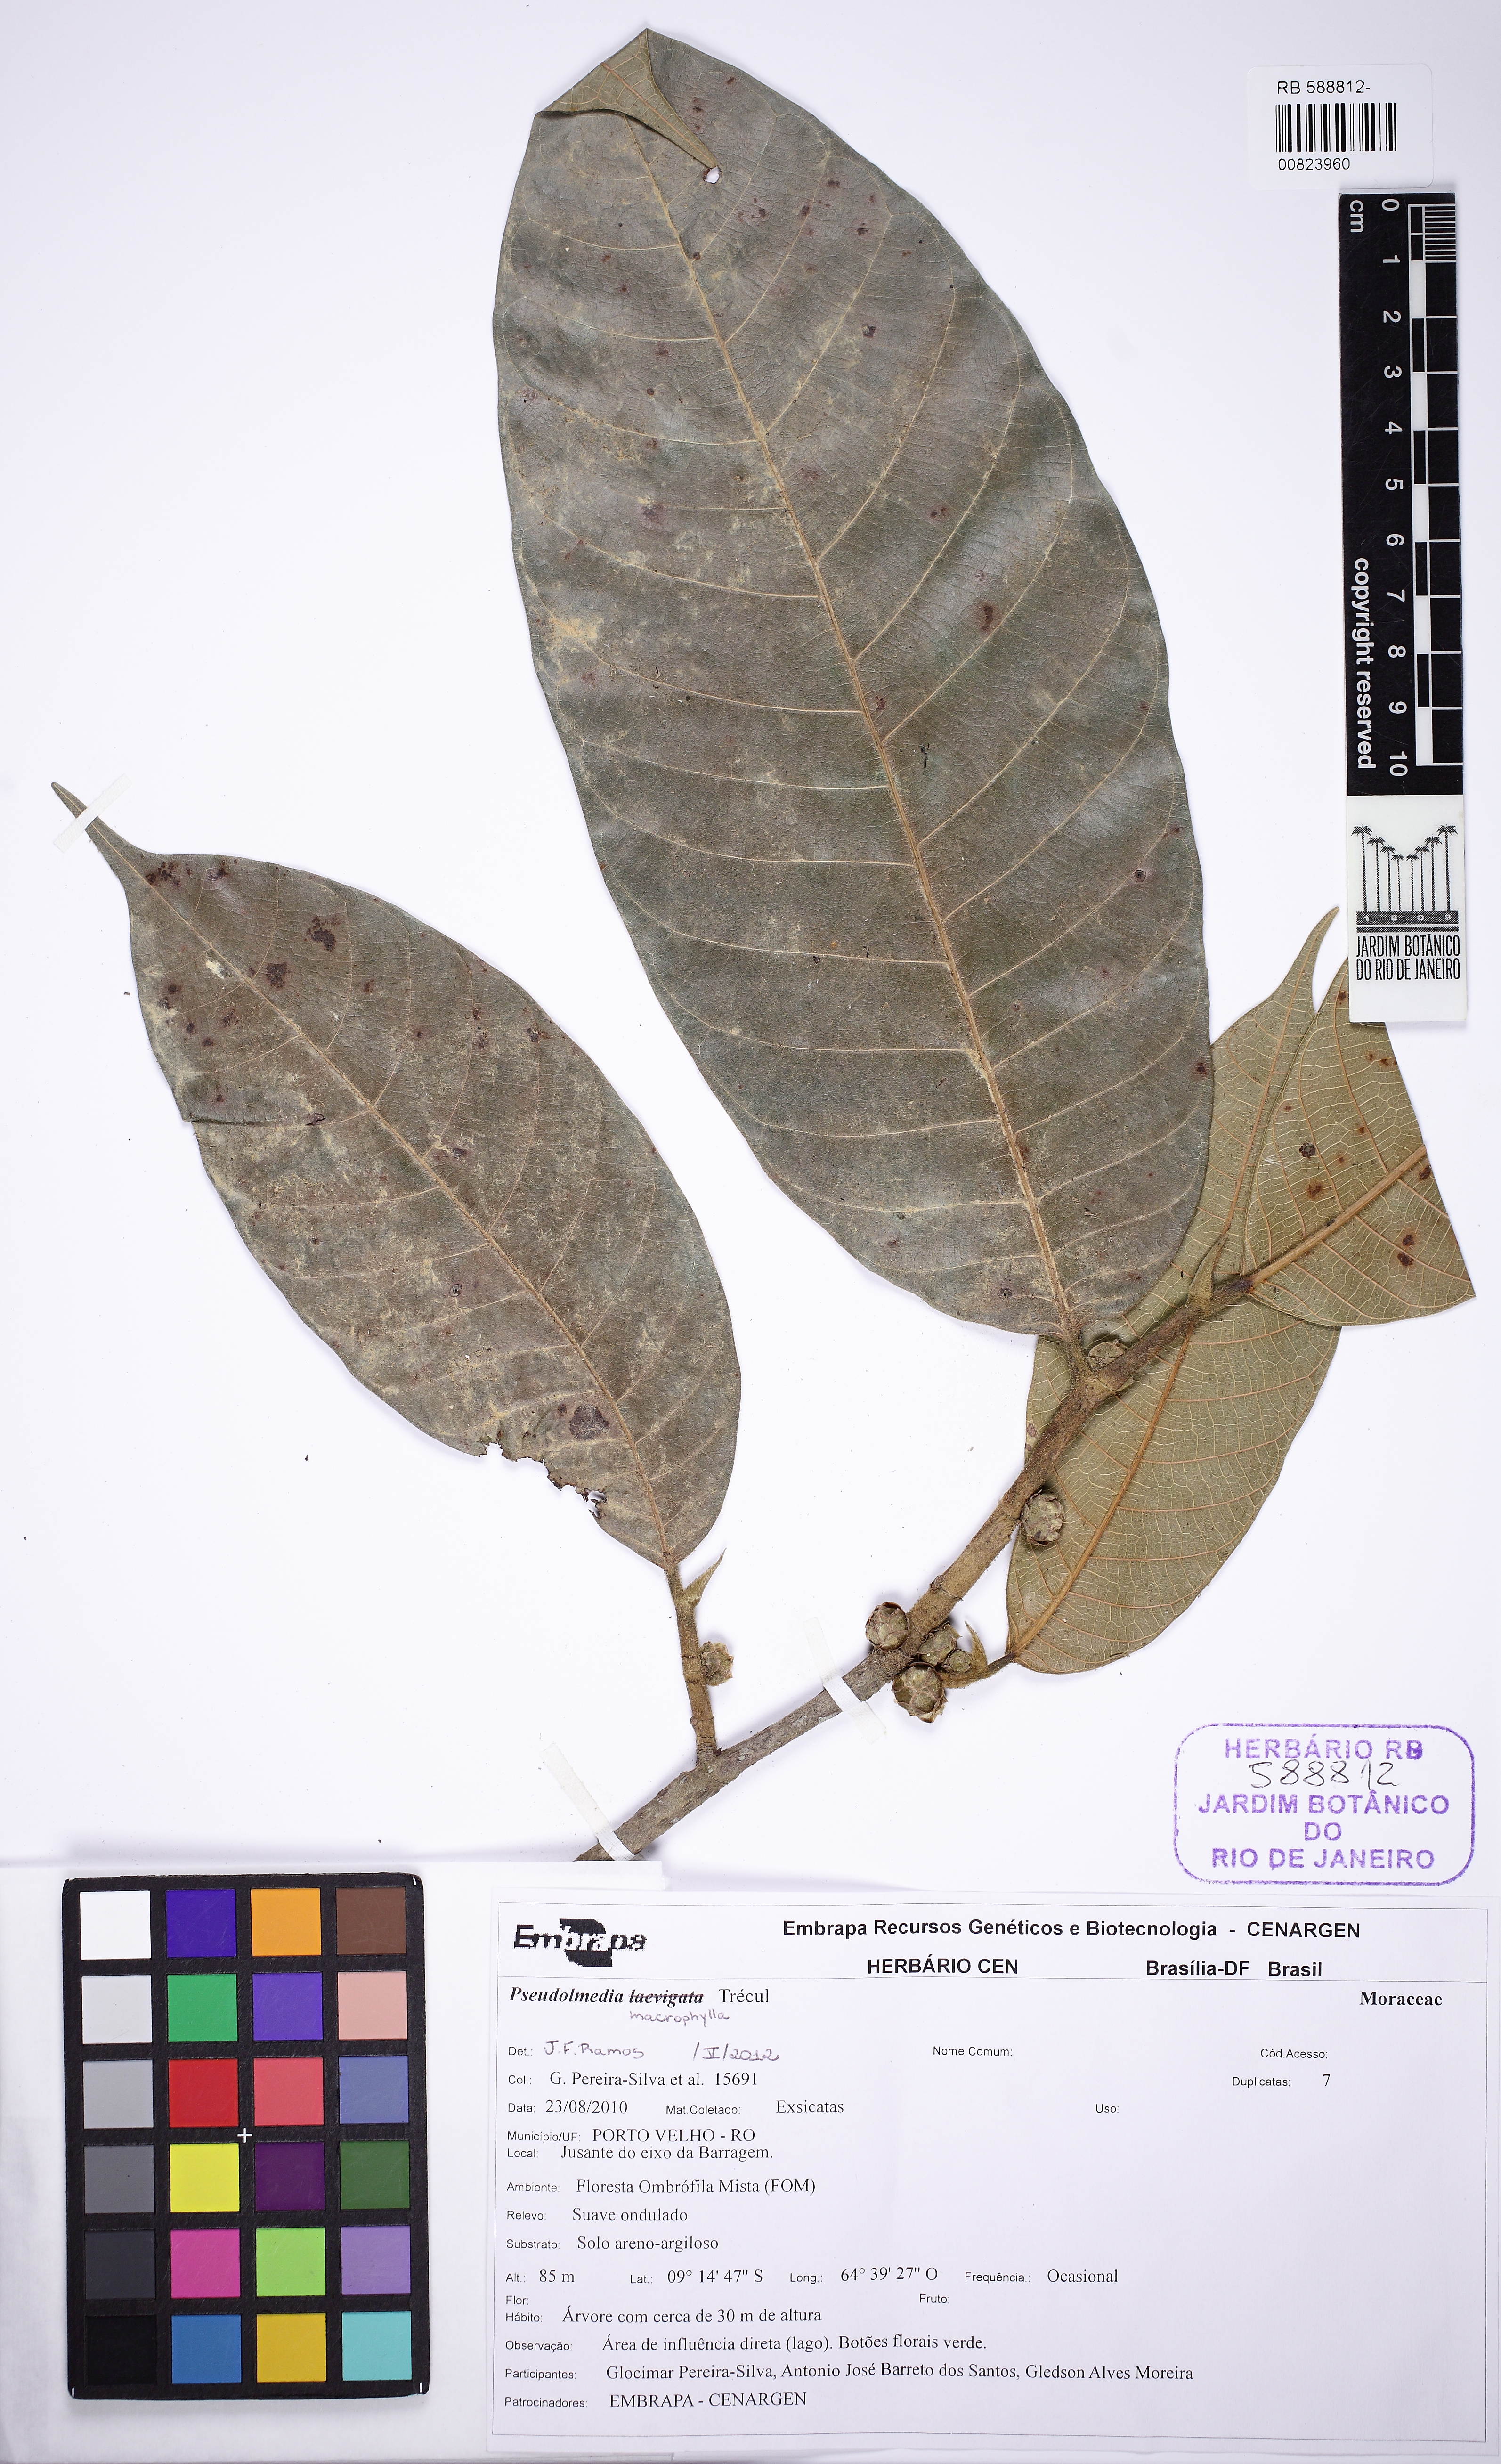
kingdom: Plantae
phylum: Tracheophyta
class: Magnoliopsida
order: Rosales
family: Moraceae
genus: Pseudolmedia
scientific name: Pseudolmedia macrophylla
